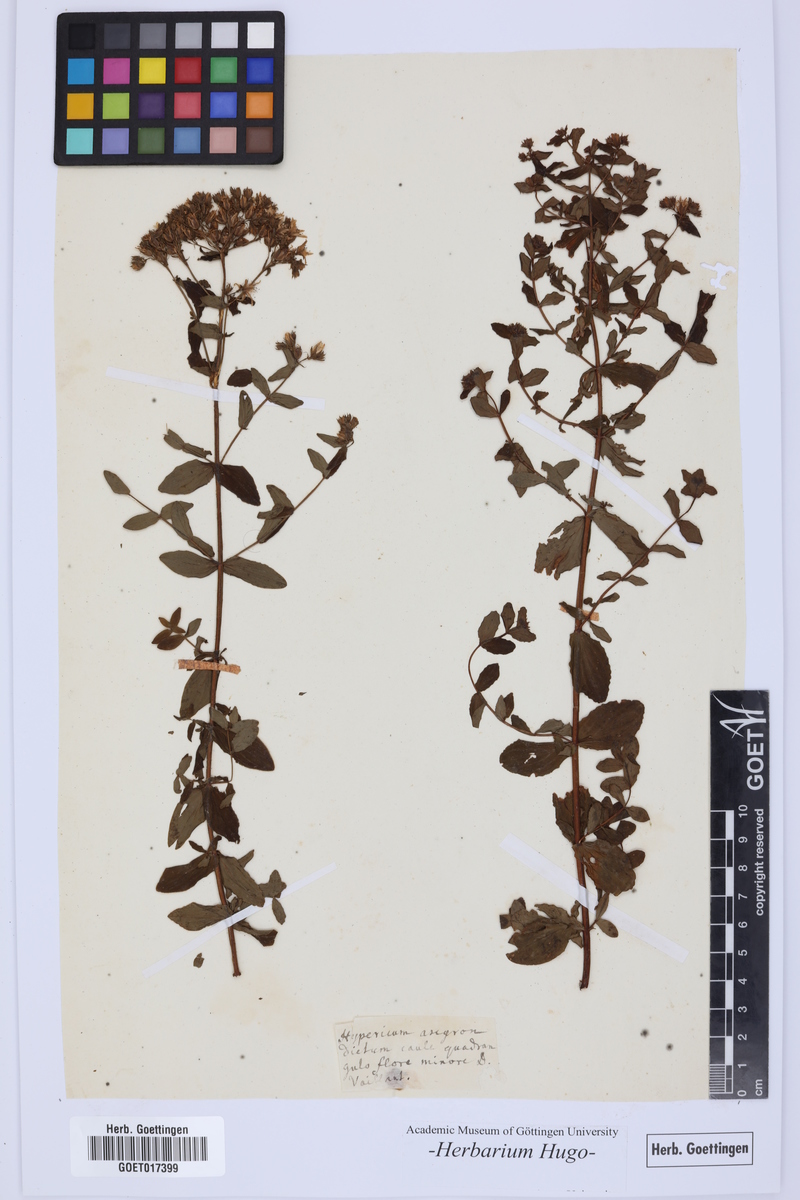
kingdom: Plantae
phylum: Tracheophyta
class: Magnoliopsida
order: Malpighiales
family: Hypericaceae
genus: Hypericum
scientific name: Hypericum tetrapterum
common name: Square-stalked st. john's-wort
